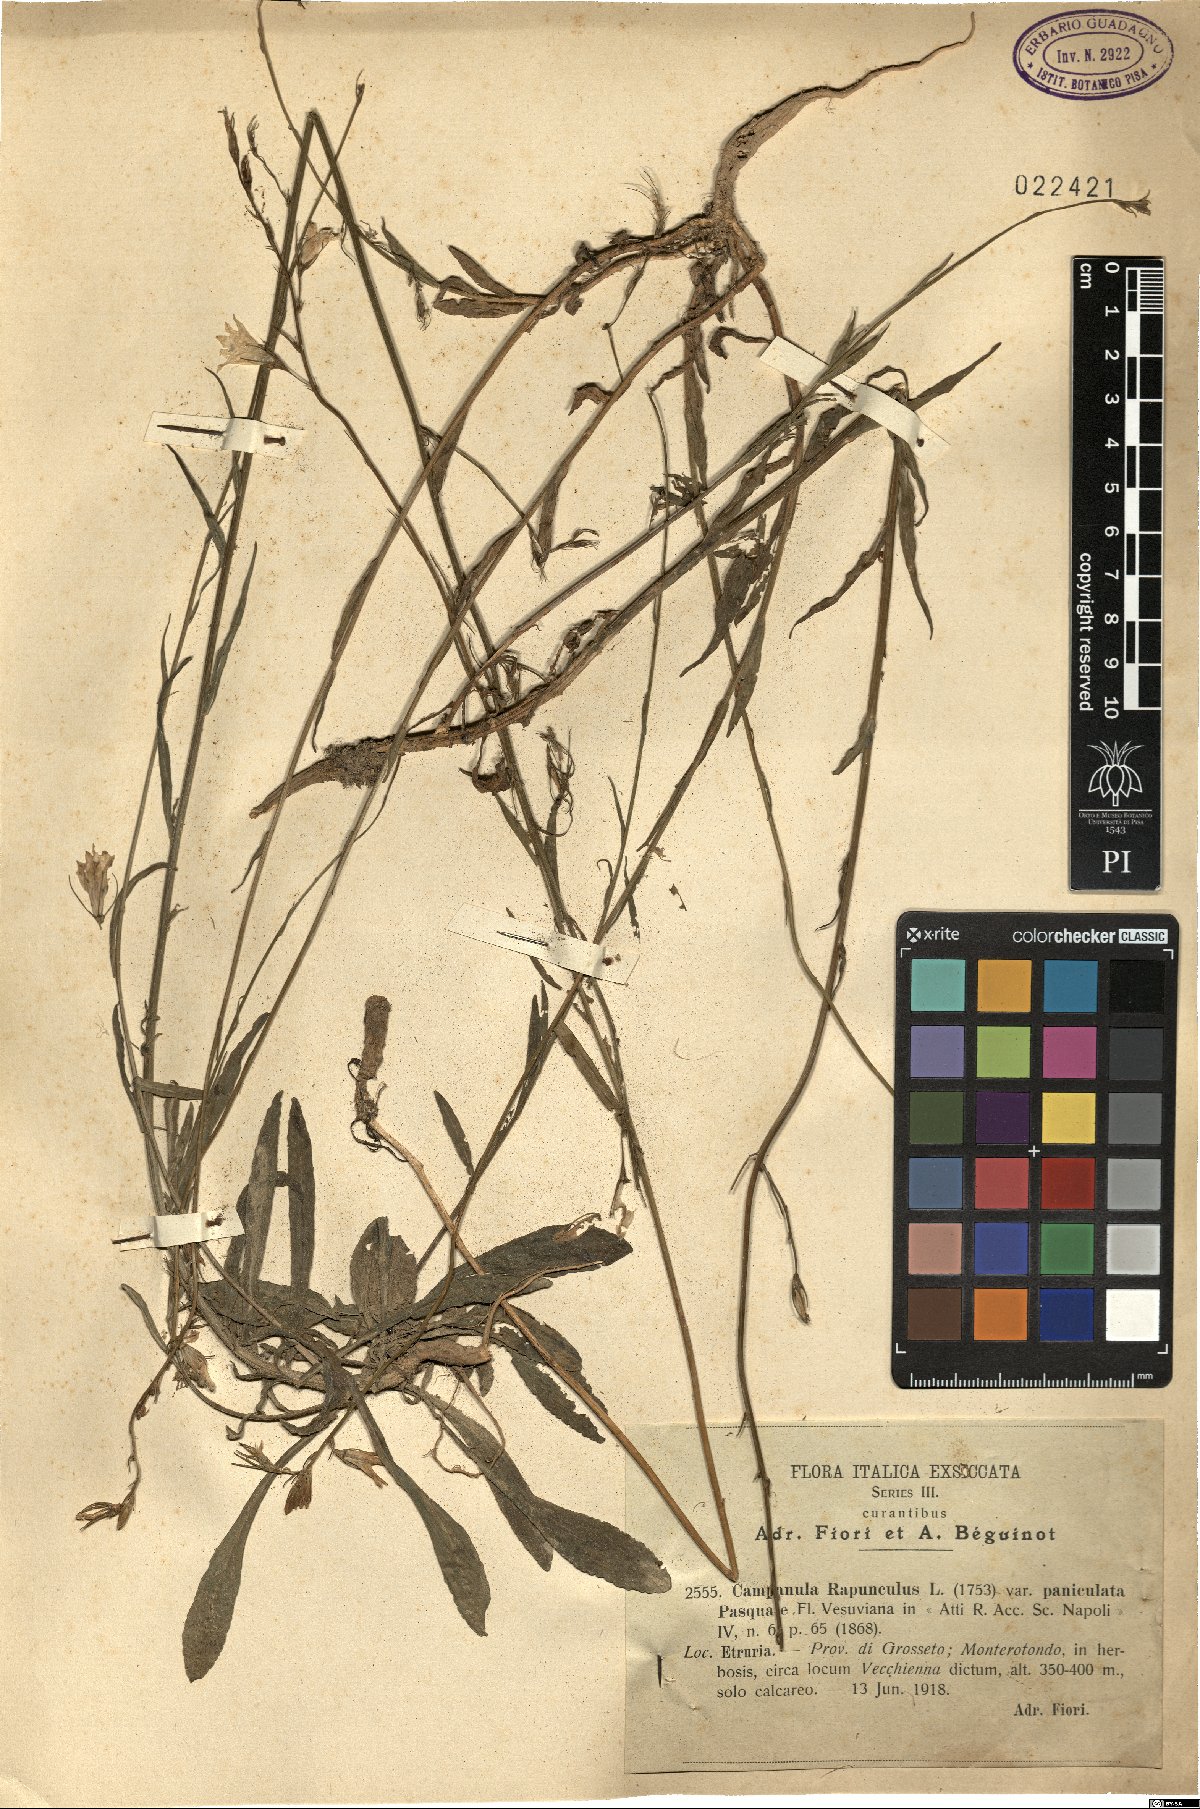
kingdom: Plantae
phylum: Tracheophyta
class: Magnoliopsida
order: Asterales
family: Campanulaceae
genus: Campanula
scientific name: Campanula rapunculus
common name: Rampion bellflower
